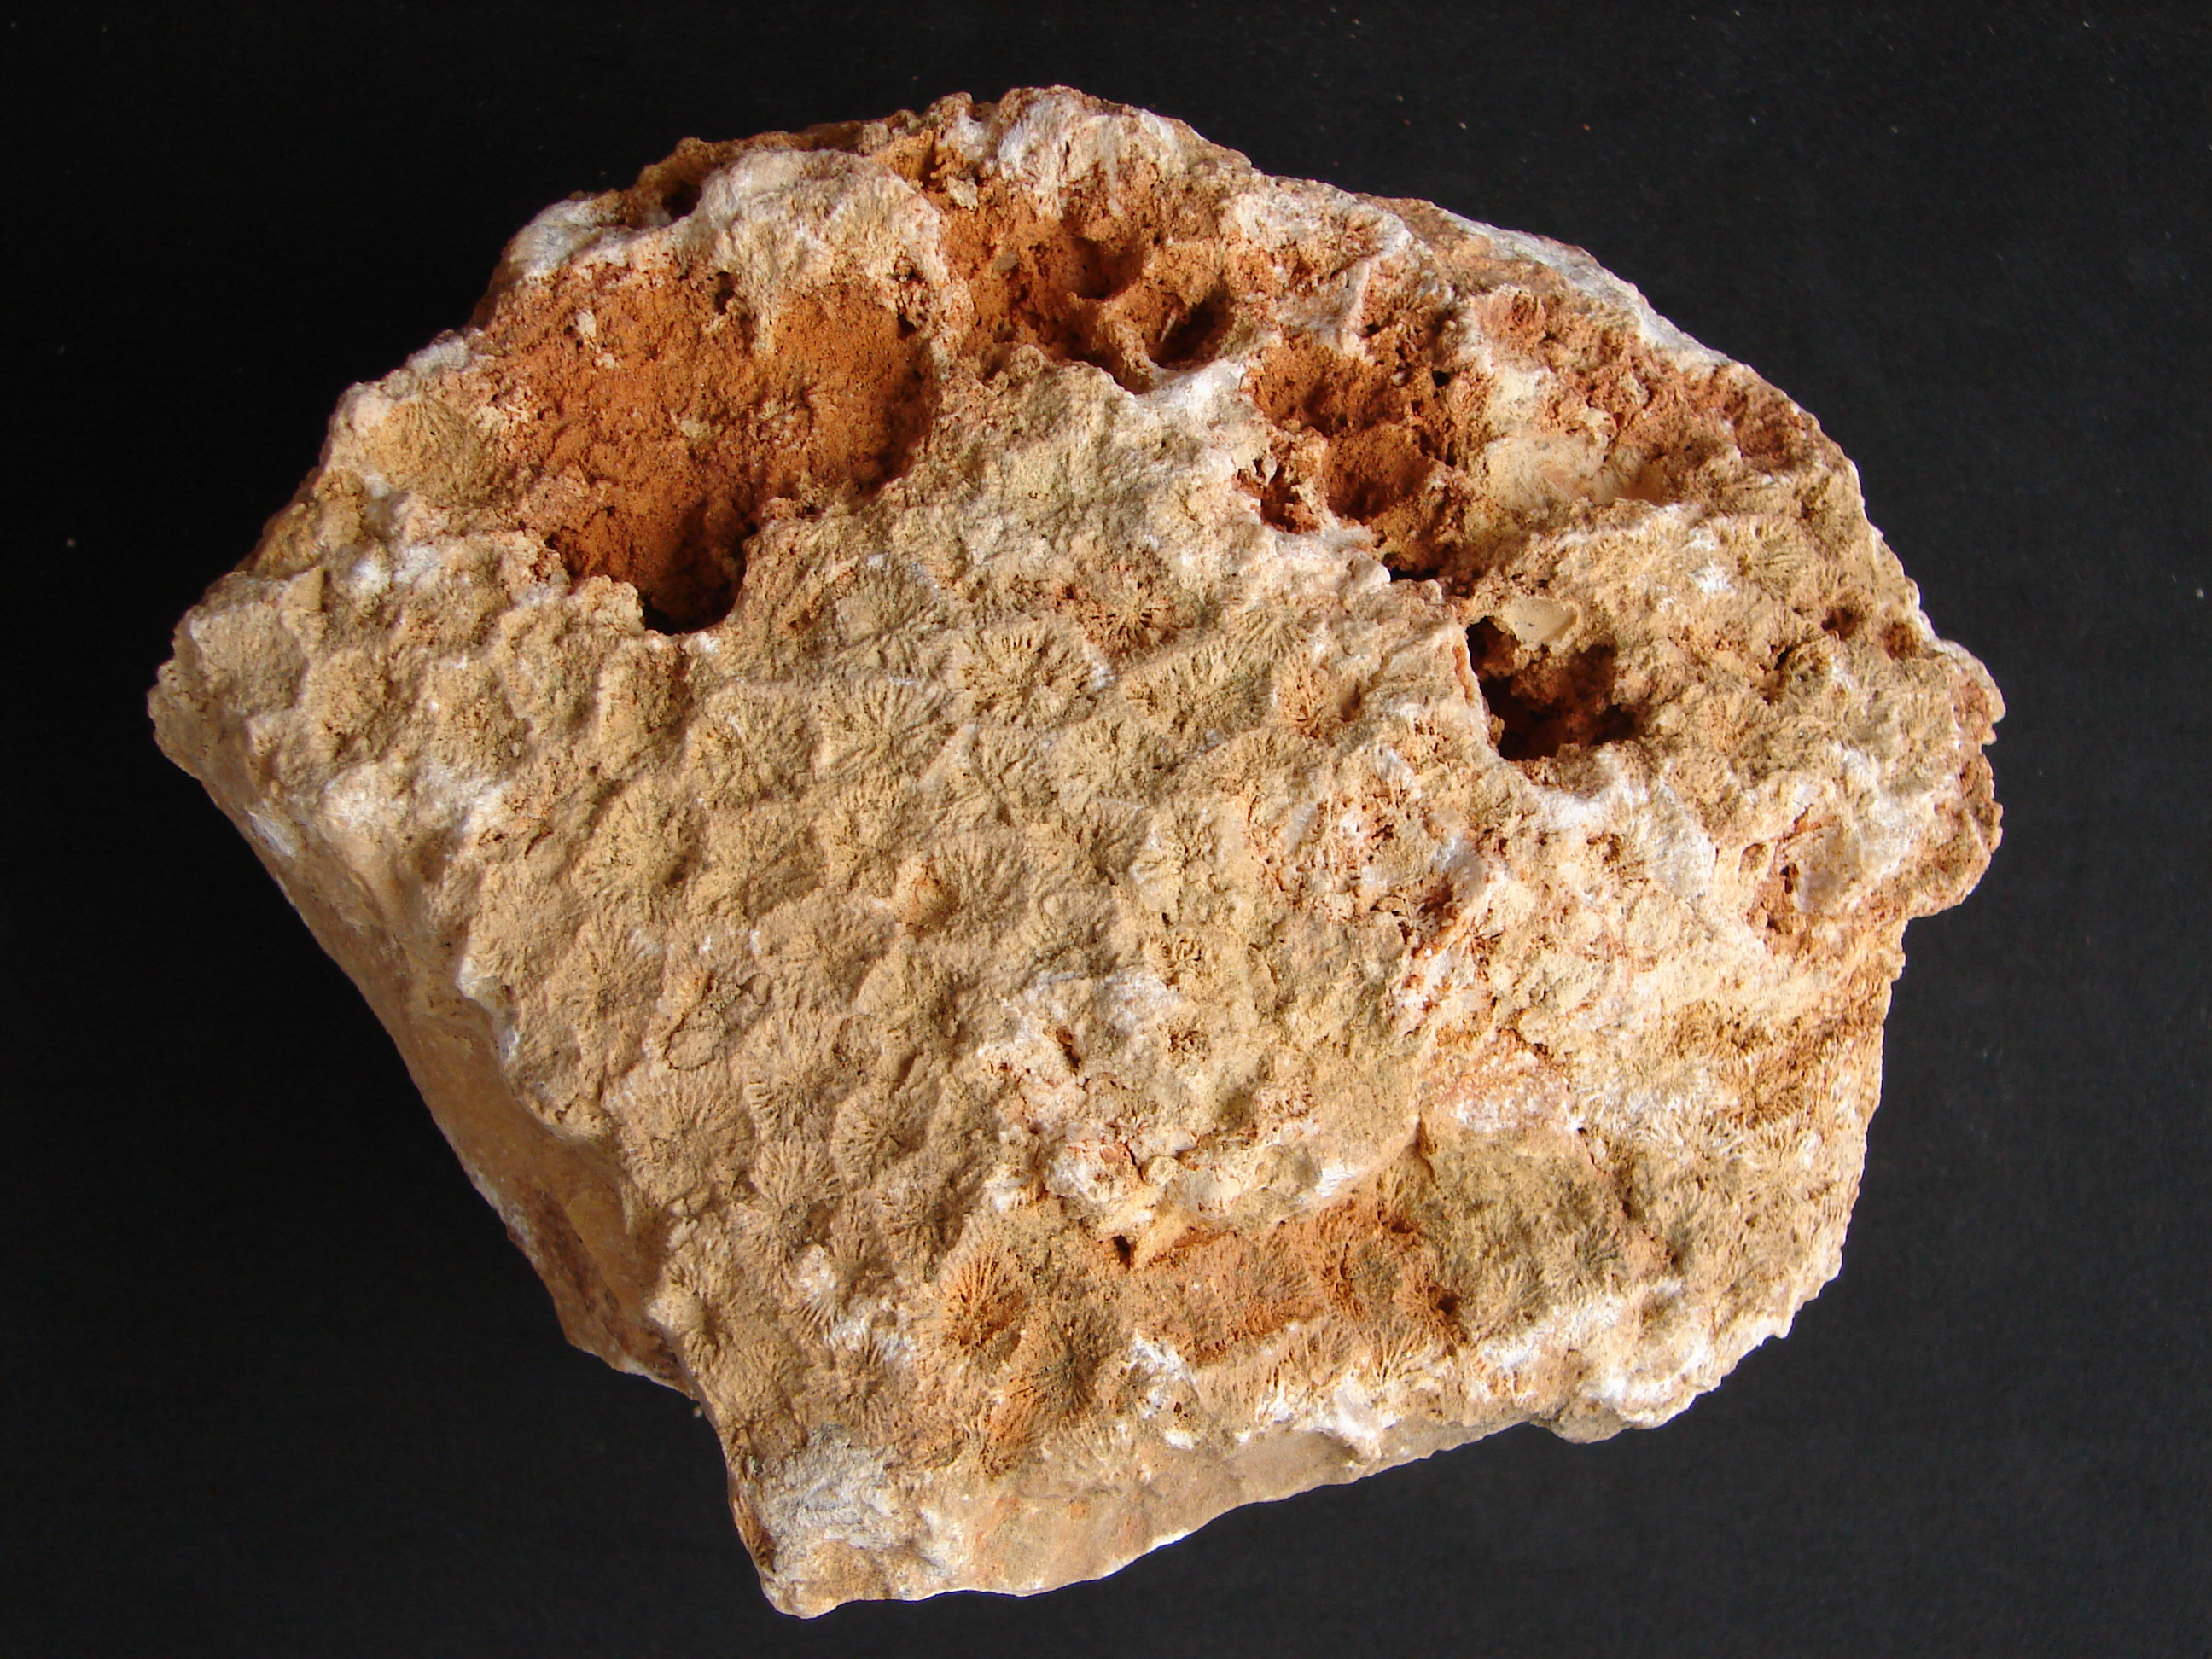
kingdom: Animalia
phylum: Mollusca
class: Bivalvia
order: Limida
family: Limidae
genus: Lima
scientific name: Lima semicircularis
